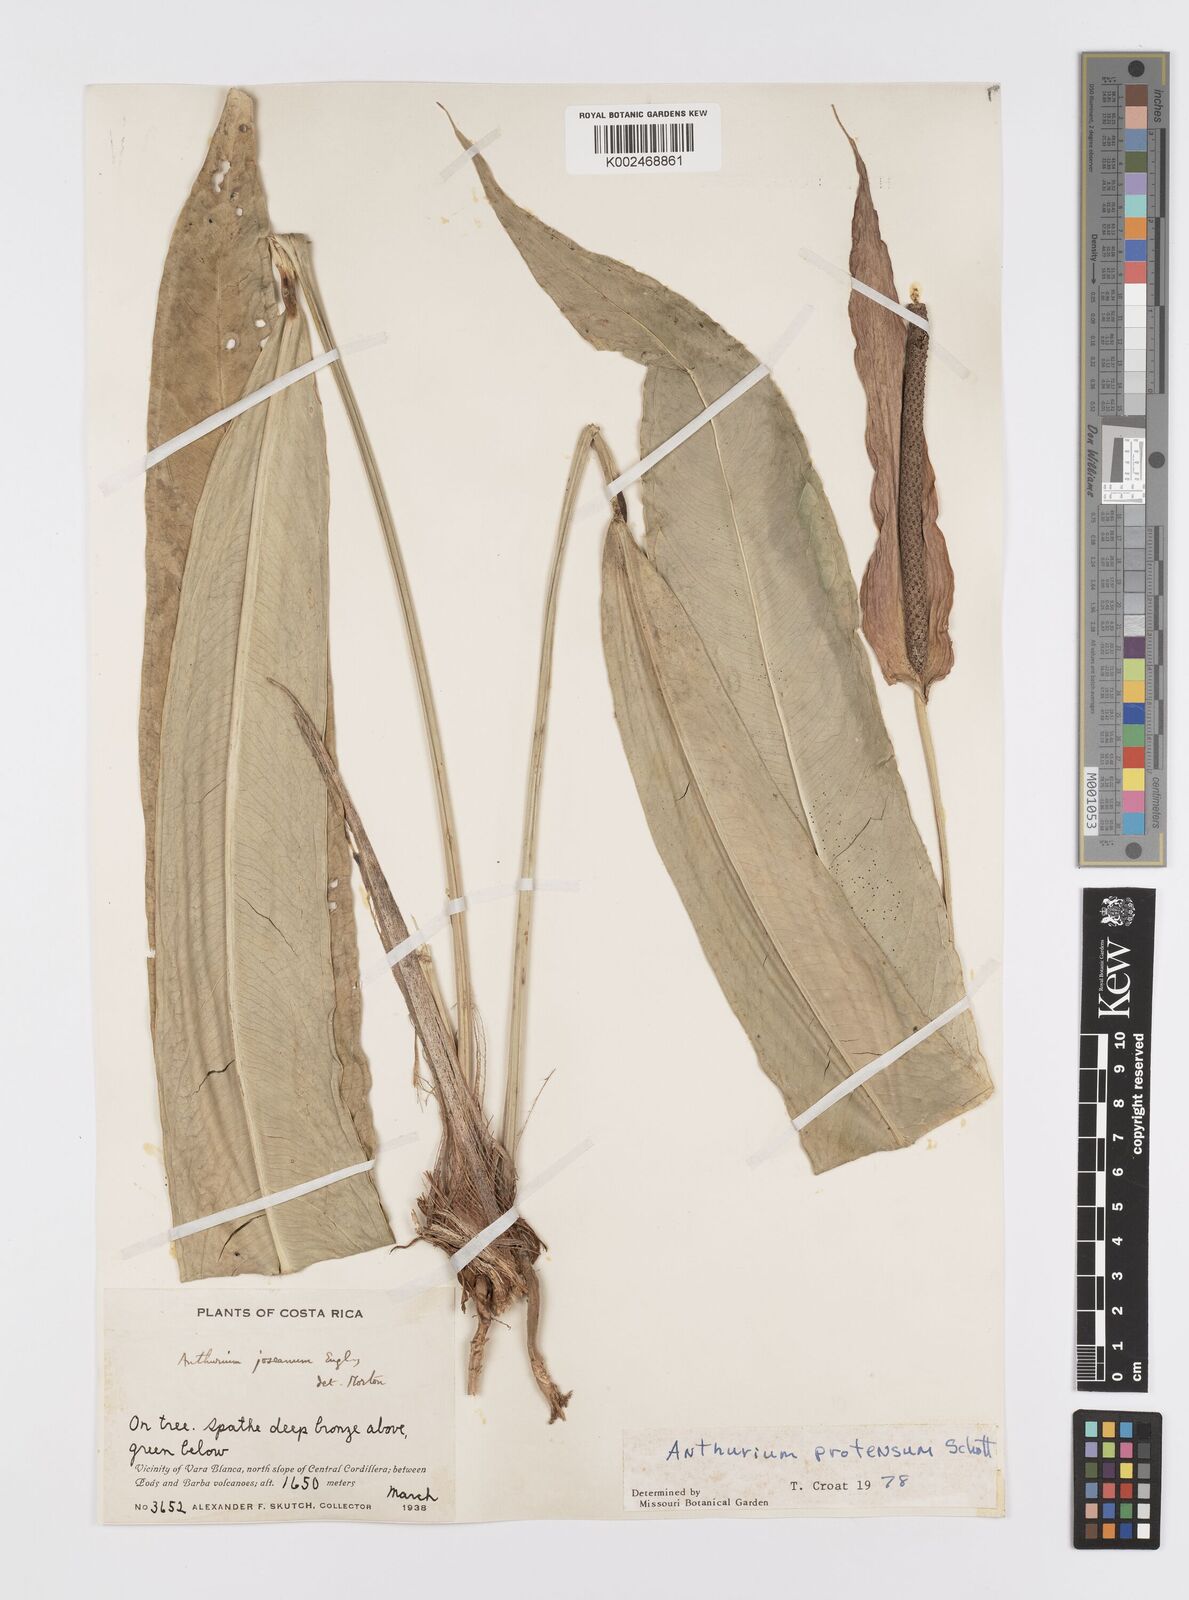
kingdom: Plantae
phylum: Tracheophyta
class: Liliopsida
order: Alismatales
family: Araceae
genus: Anthurium
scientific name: Anthurium protensum
